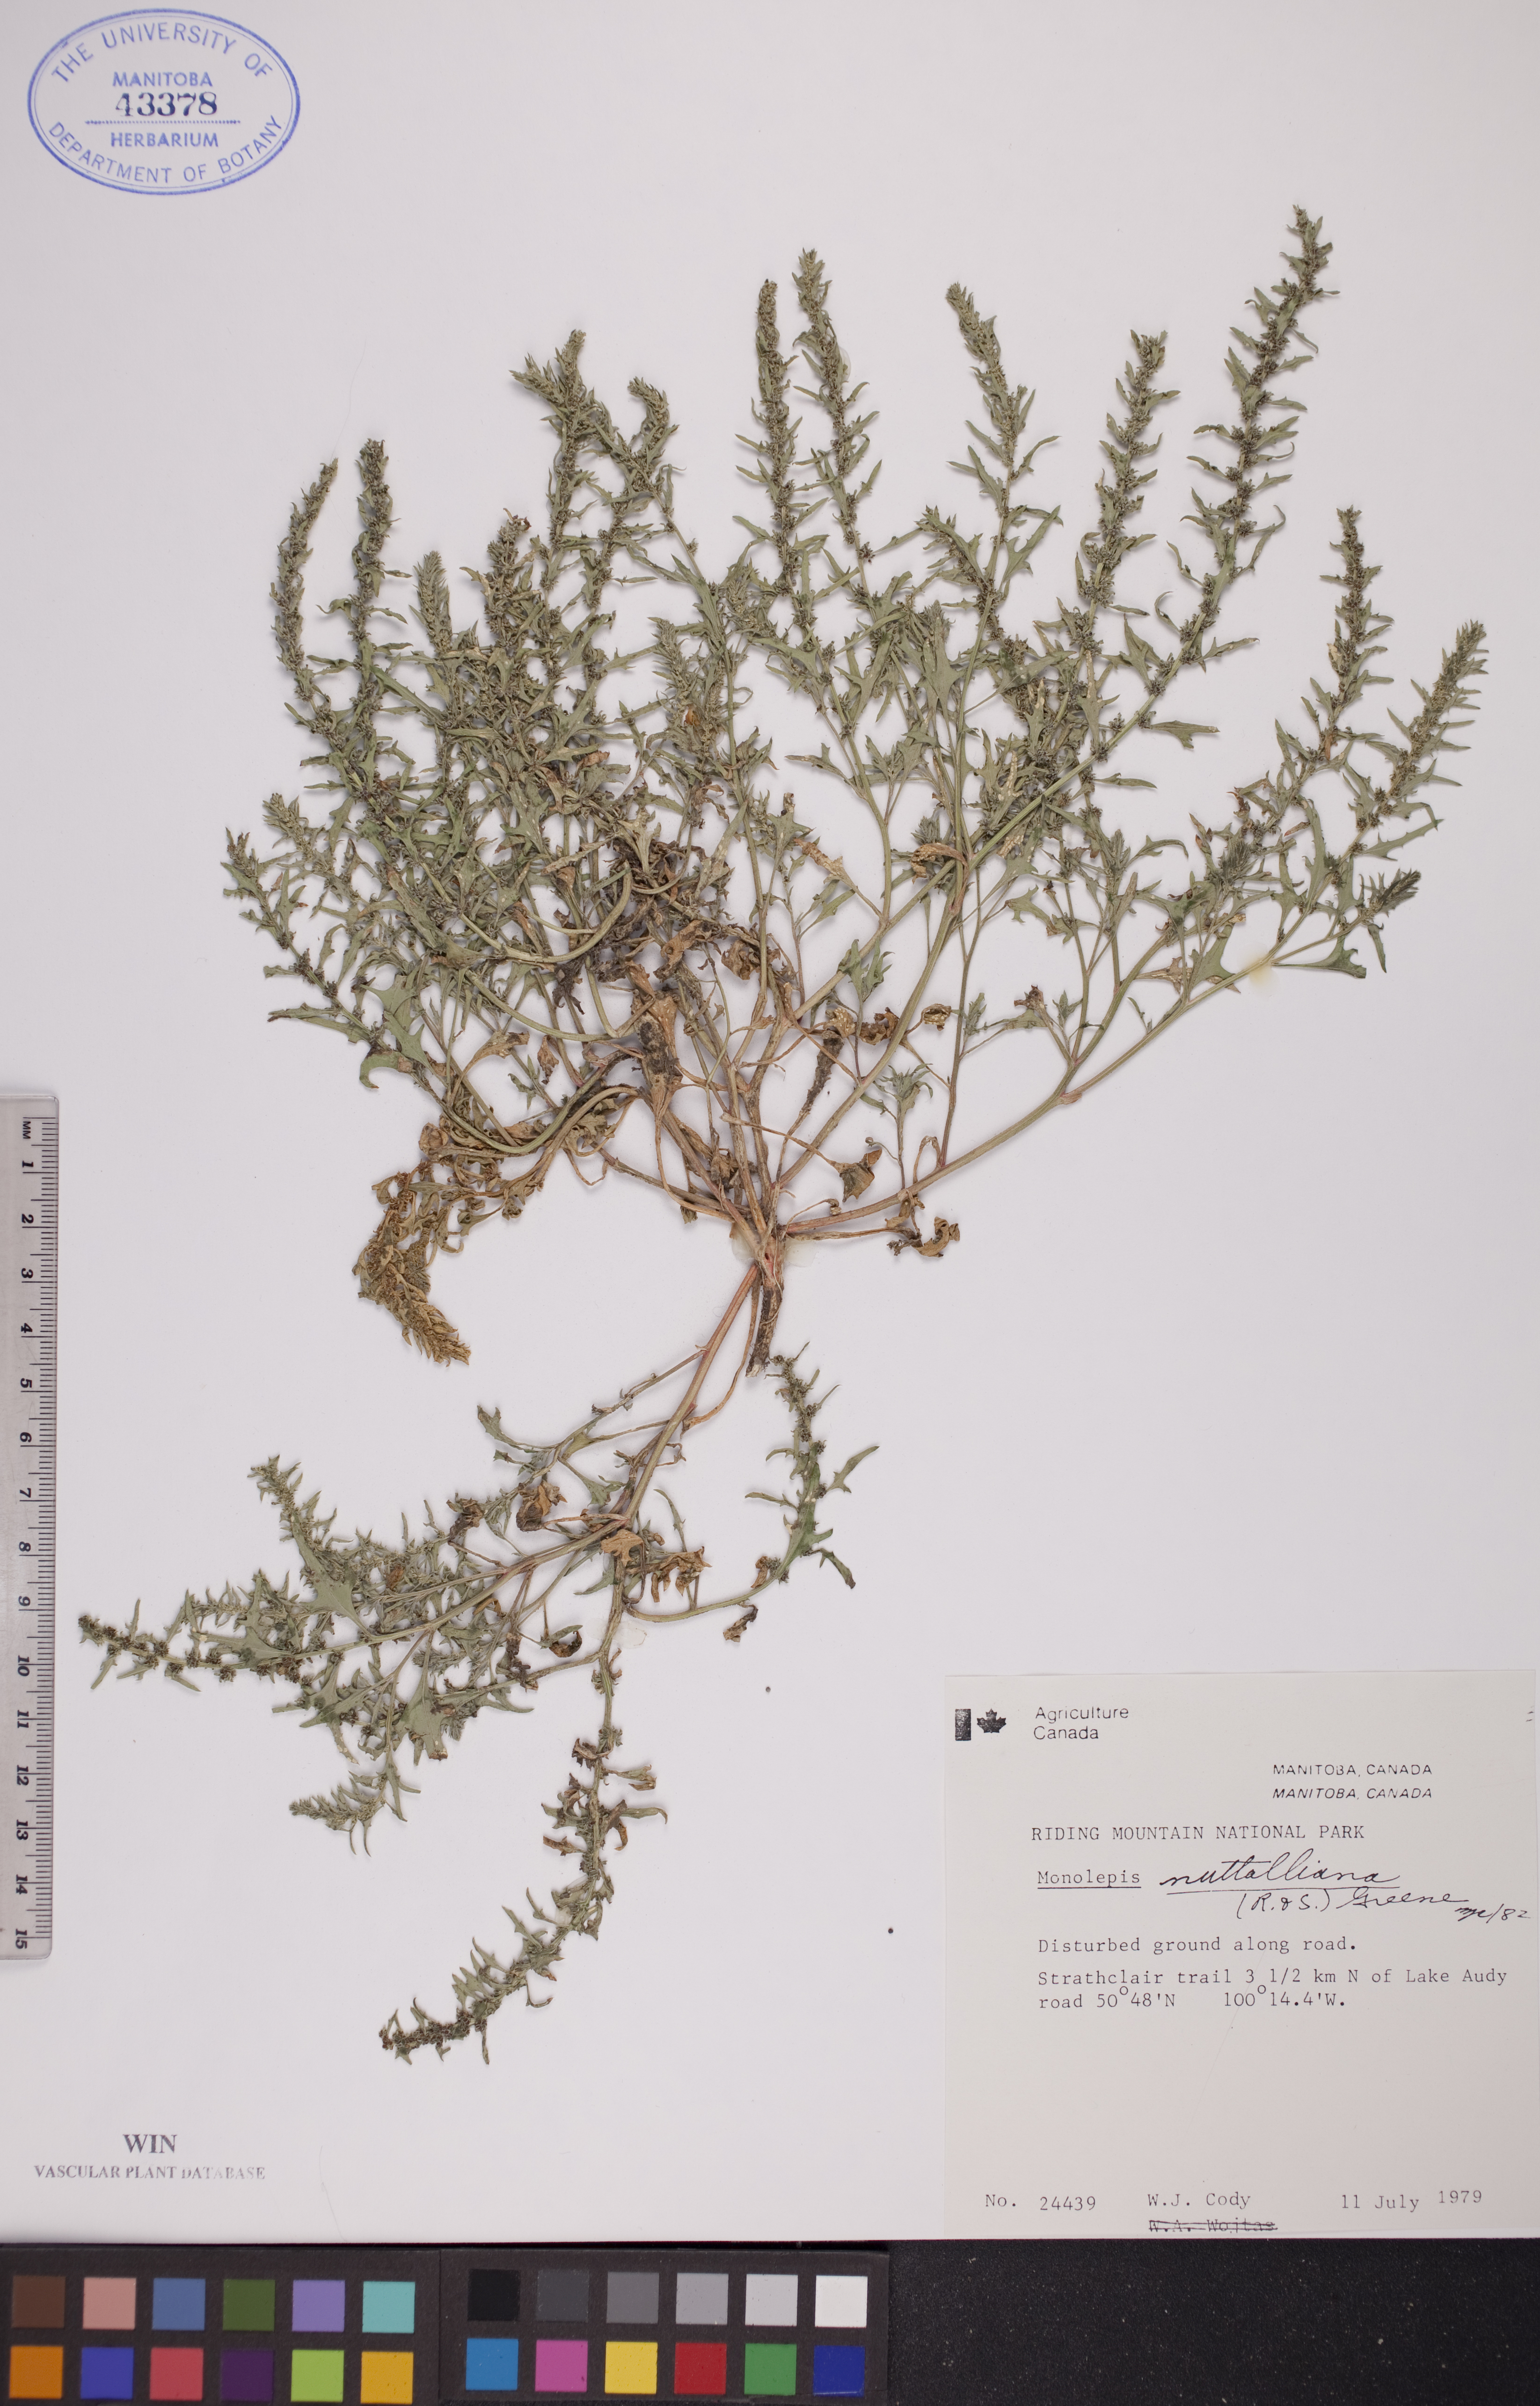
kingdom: Plantae
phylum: Tracheophyta
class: Magnoliopsida
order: Caryophyllales
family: Amaranthaceae
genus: Blitum
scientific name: Blitum nuttallianum
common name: Poverty-weed
